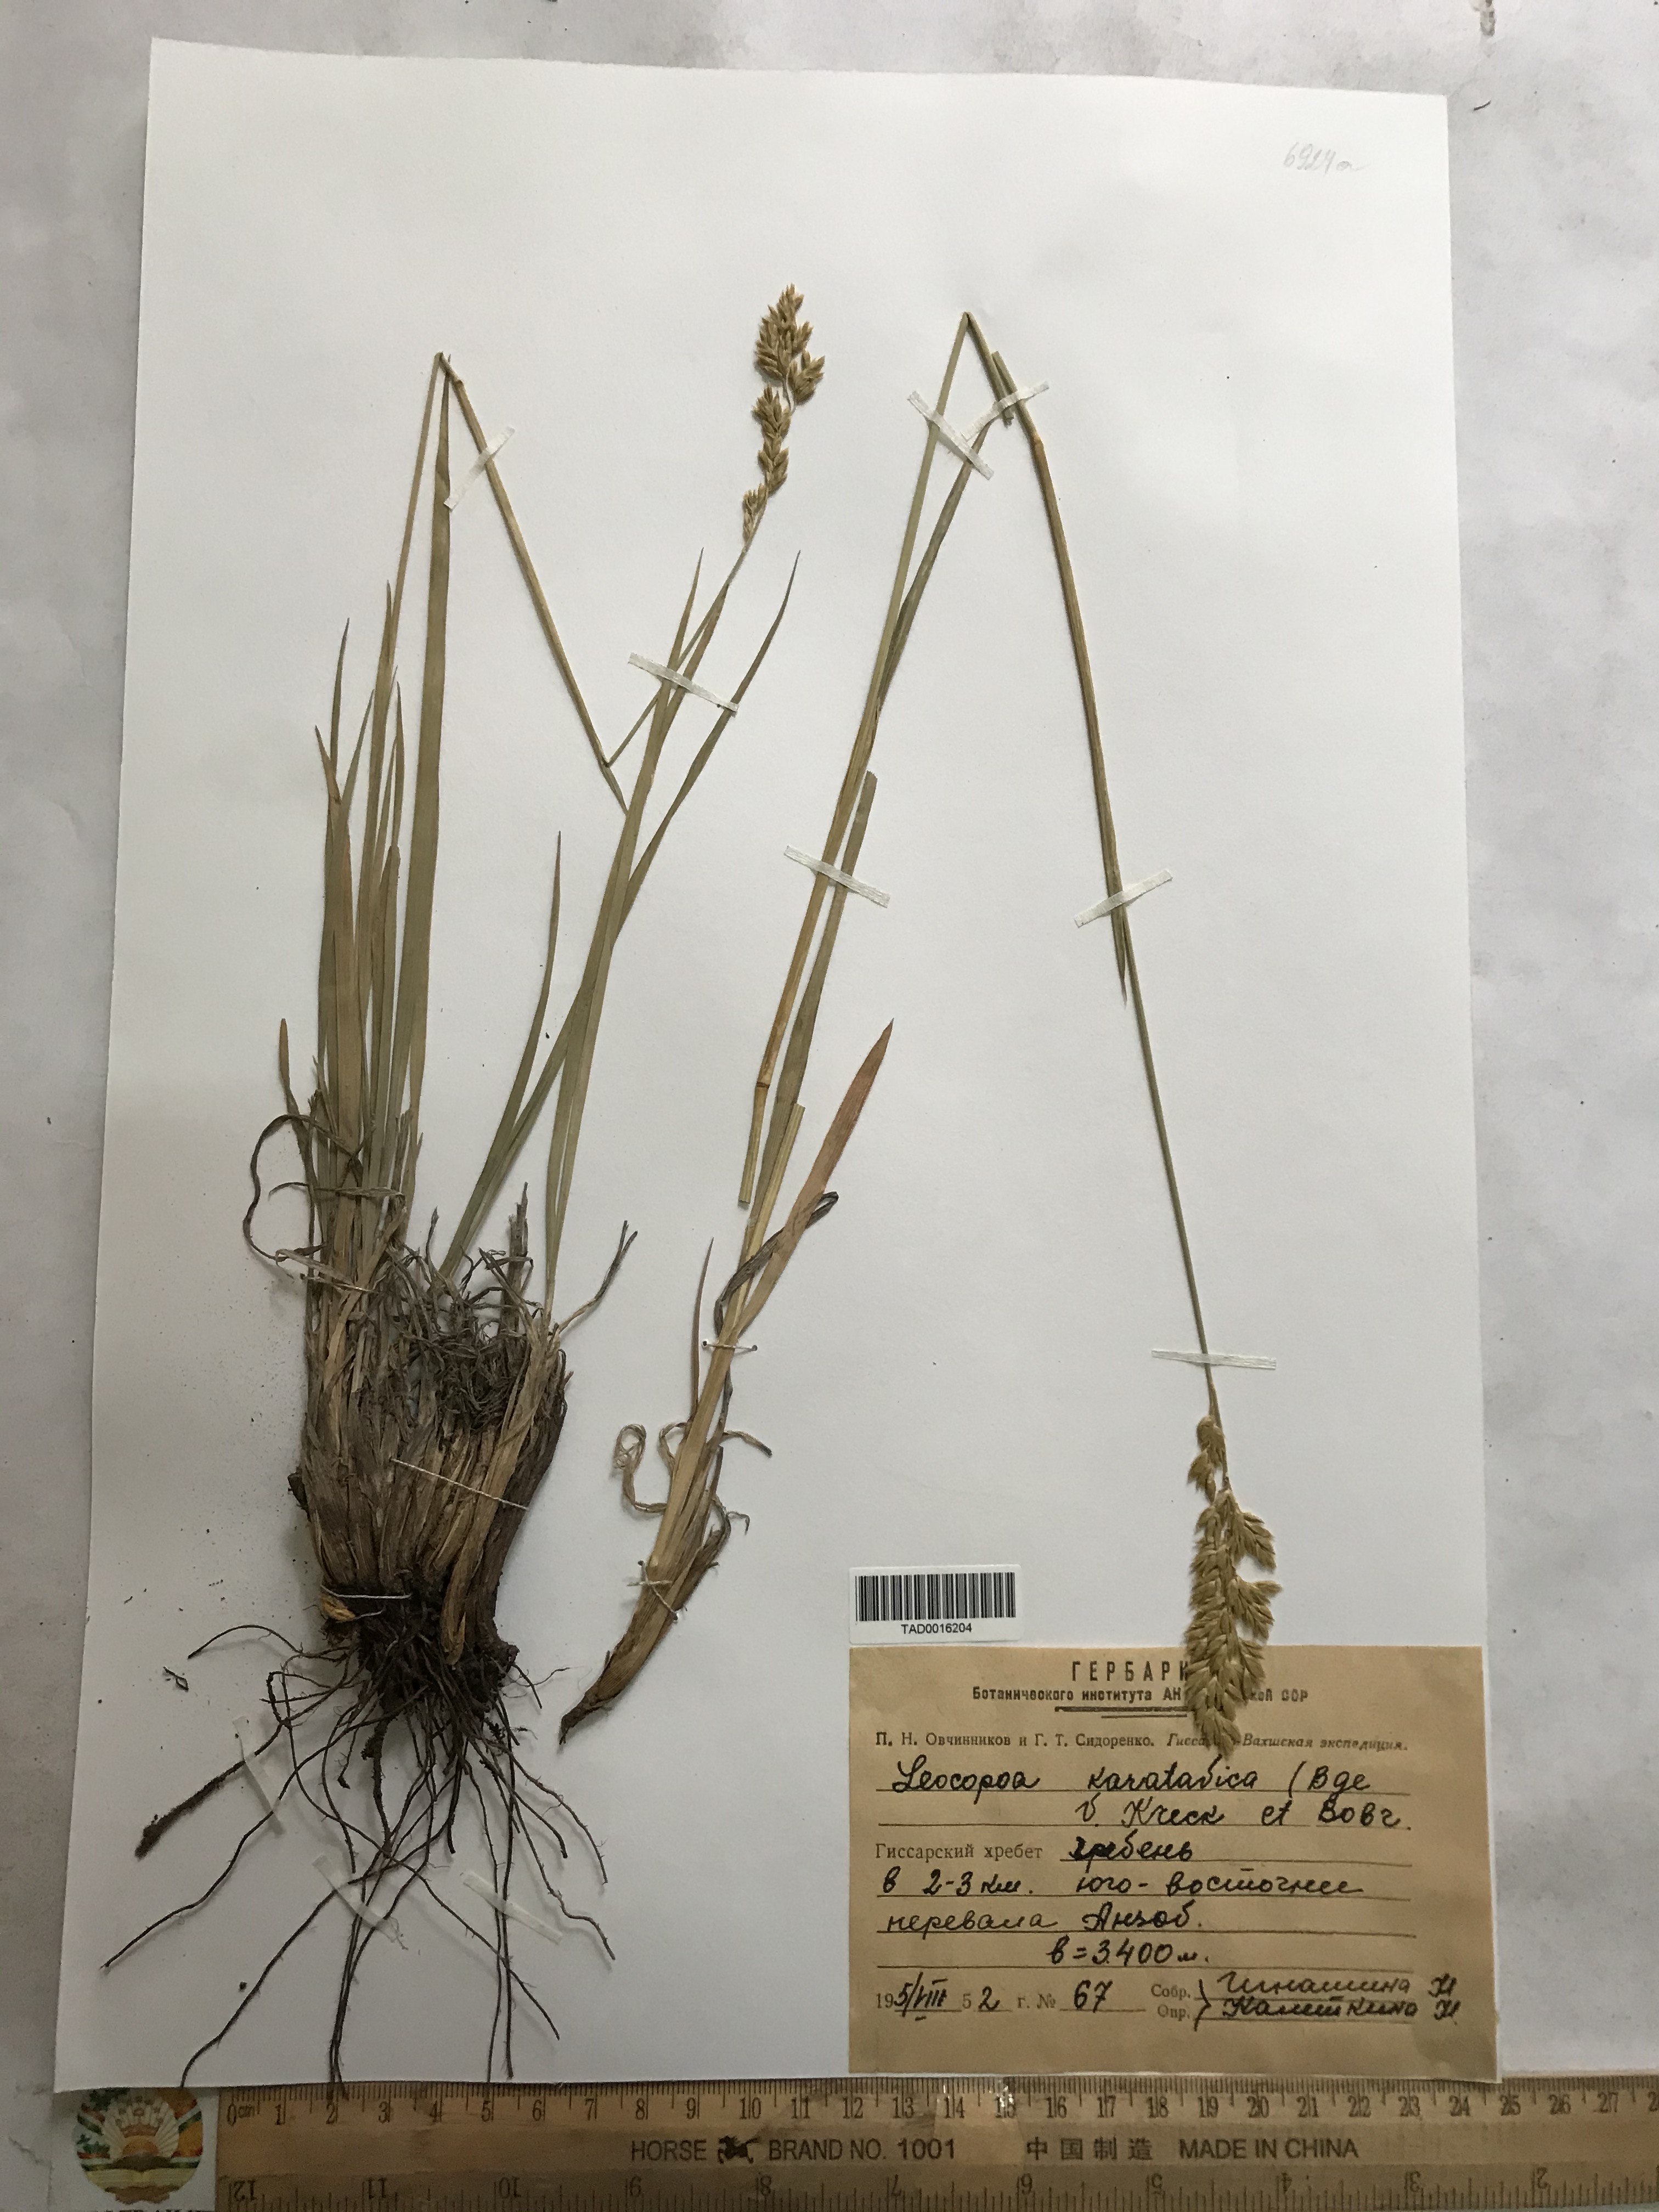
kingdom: Plantae
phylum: Tracheophyta
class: Liliopsida
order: Poales
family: Poaceae
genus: Festuca
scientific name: Festuca karatavica
